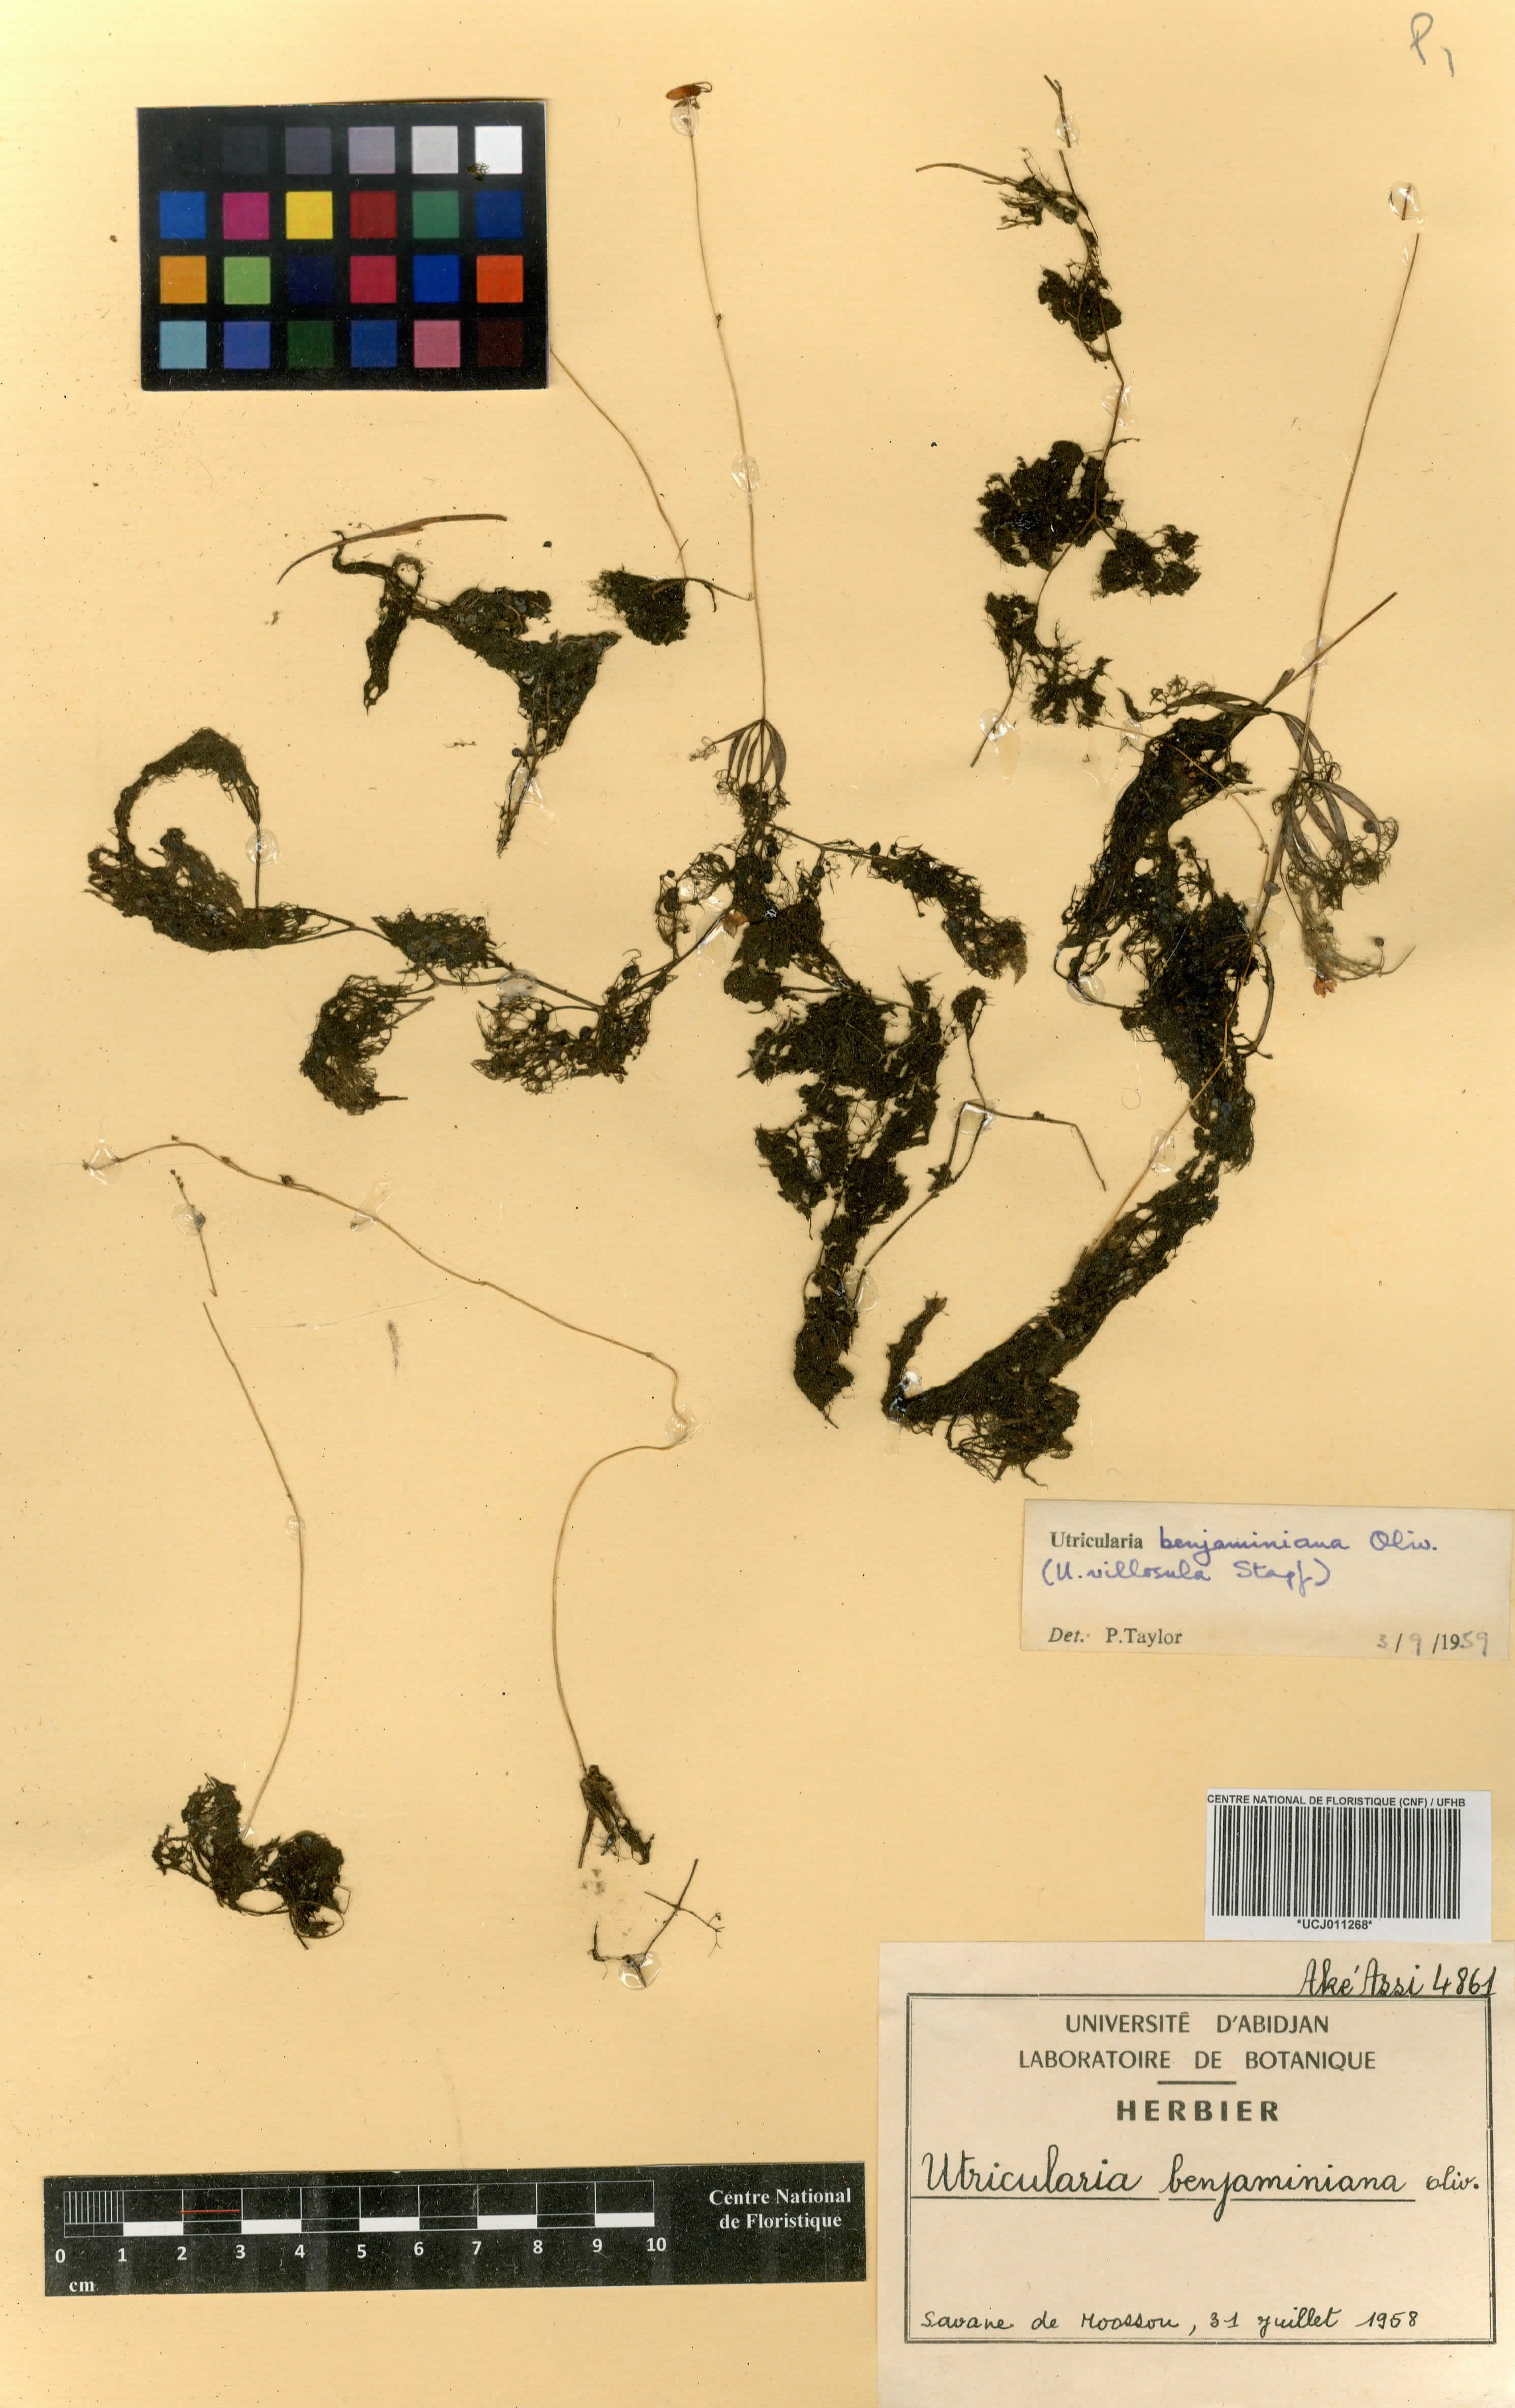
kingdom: Plantae
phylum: Tracheophyta
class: Magnoliopsida
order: Lamiales
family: Lentibulariaceae
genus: Utricularia
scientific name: Utricularia benjaminiana
